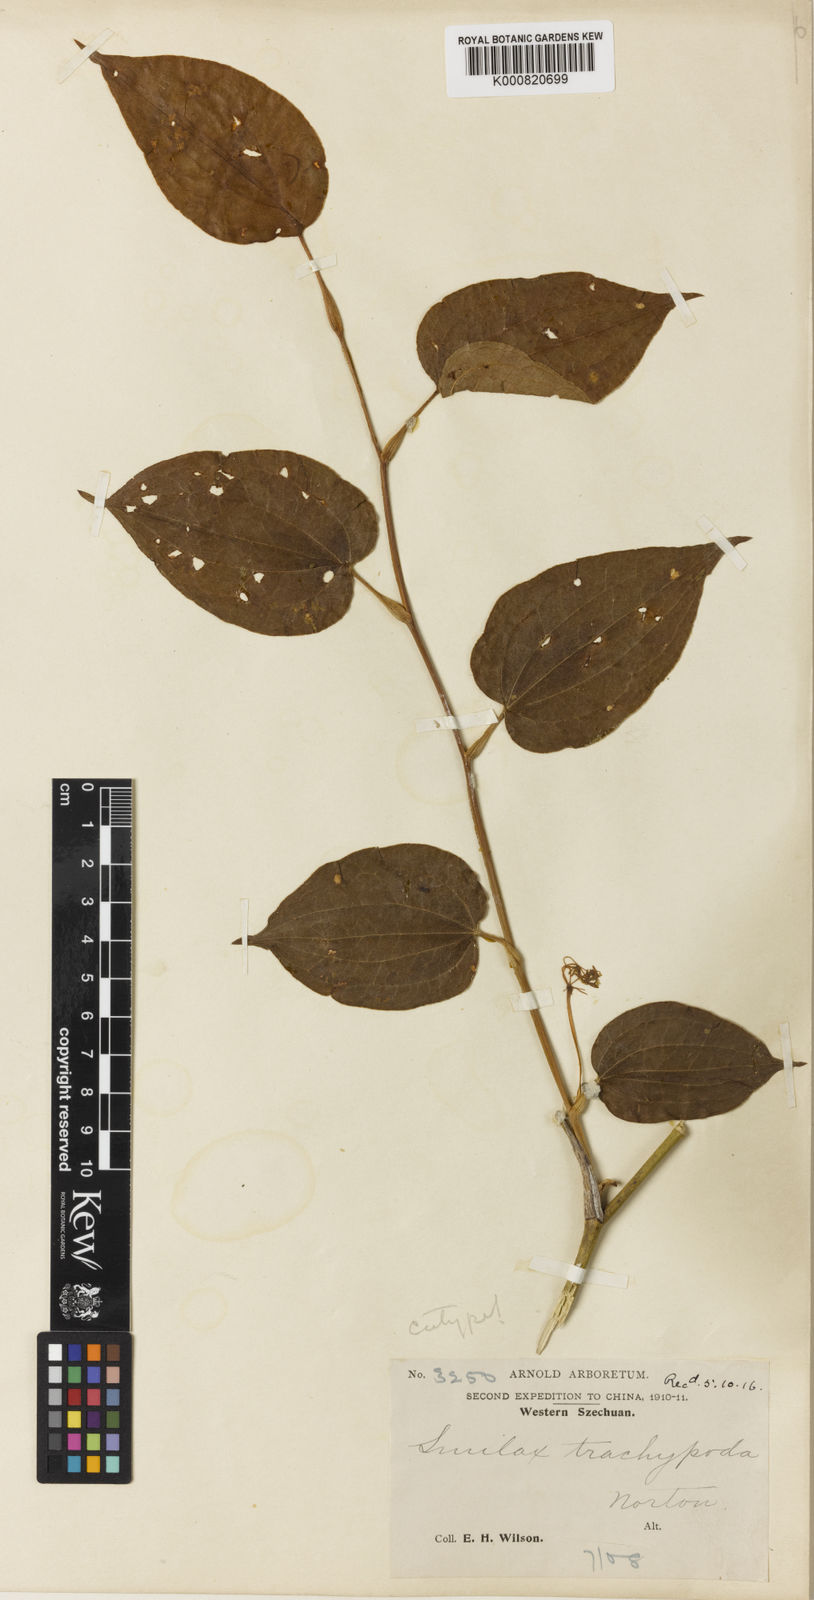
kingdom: Plantae
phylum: Tracheophyta
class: Liliopsida
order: Liliales
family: Smilacaceae
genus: Smilax
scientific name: Smilax trachypoda
